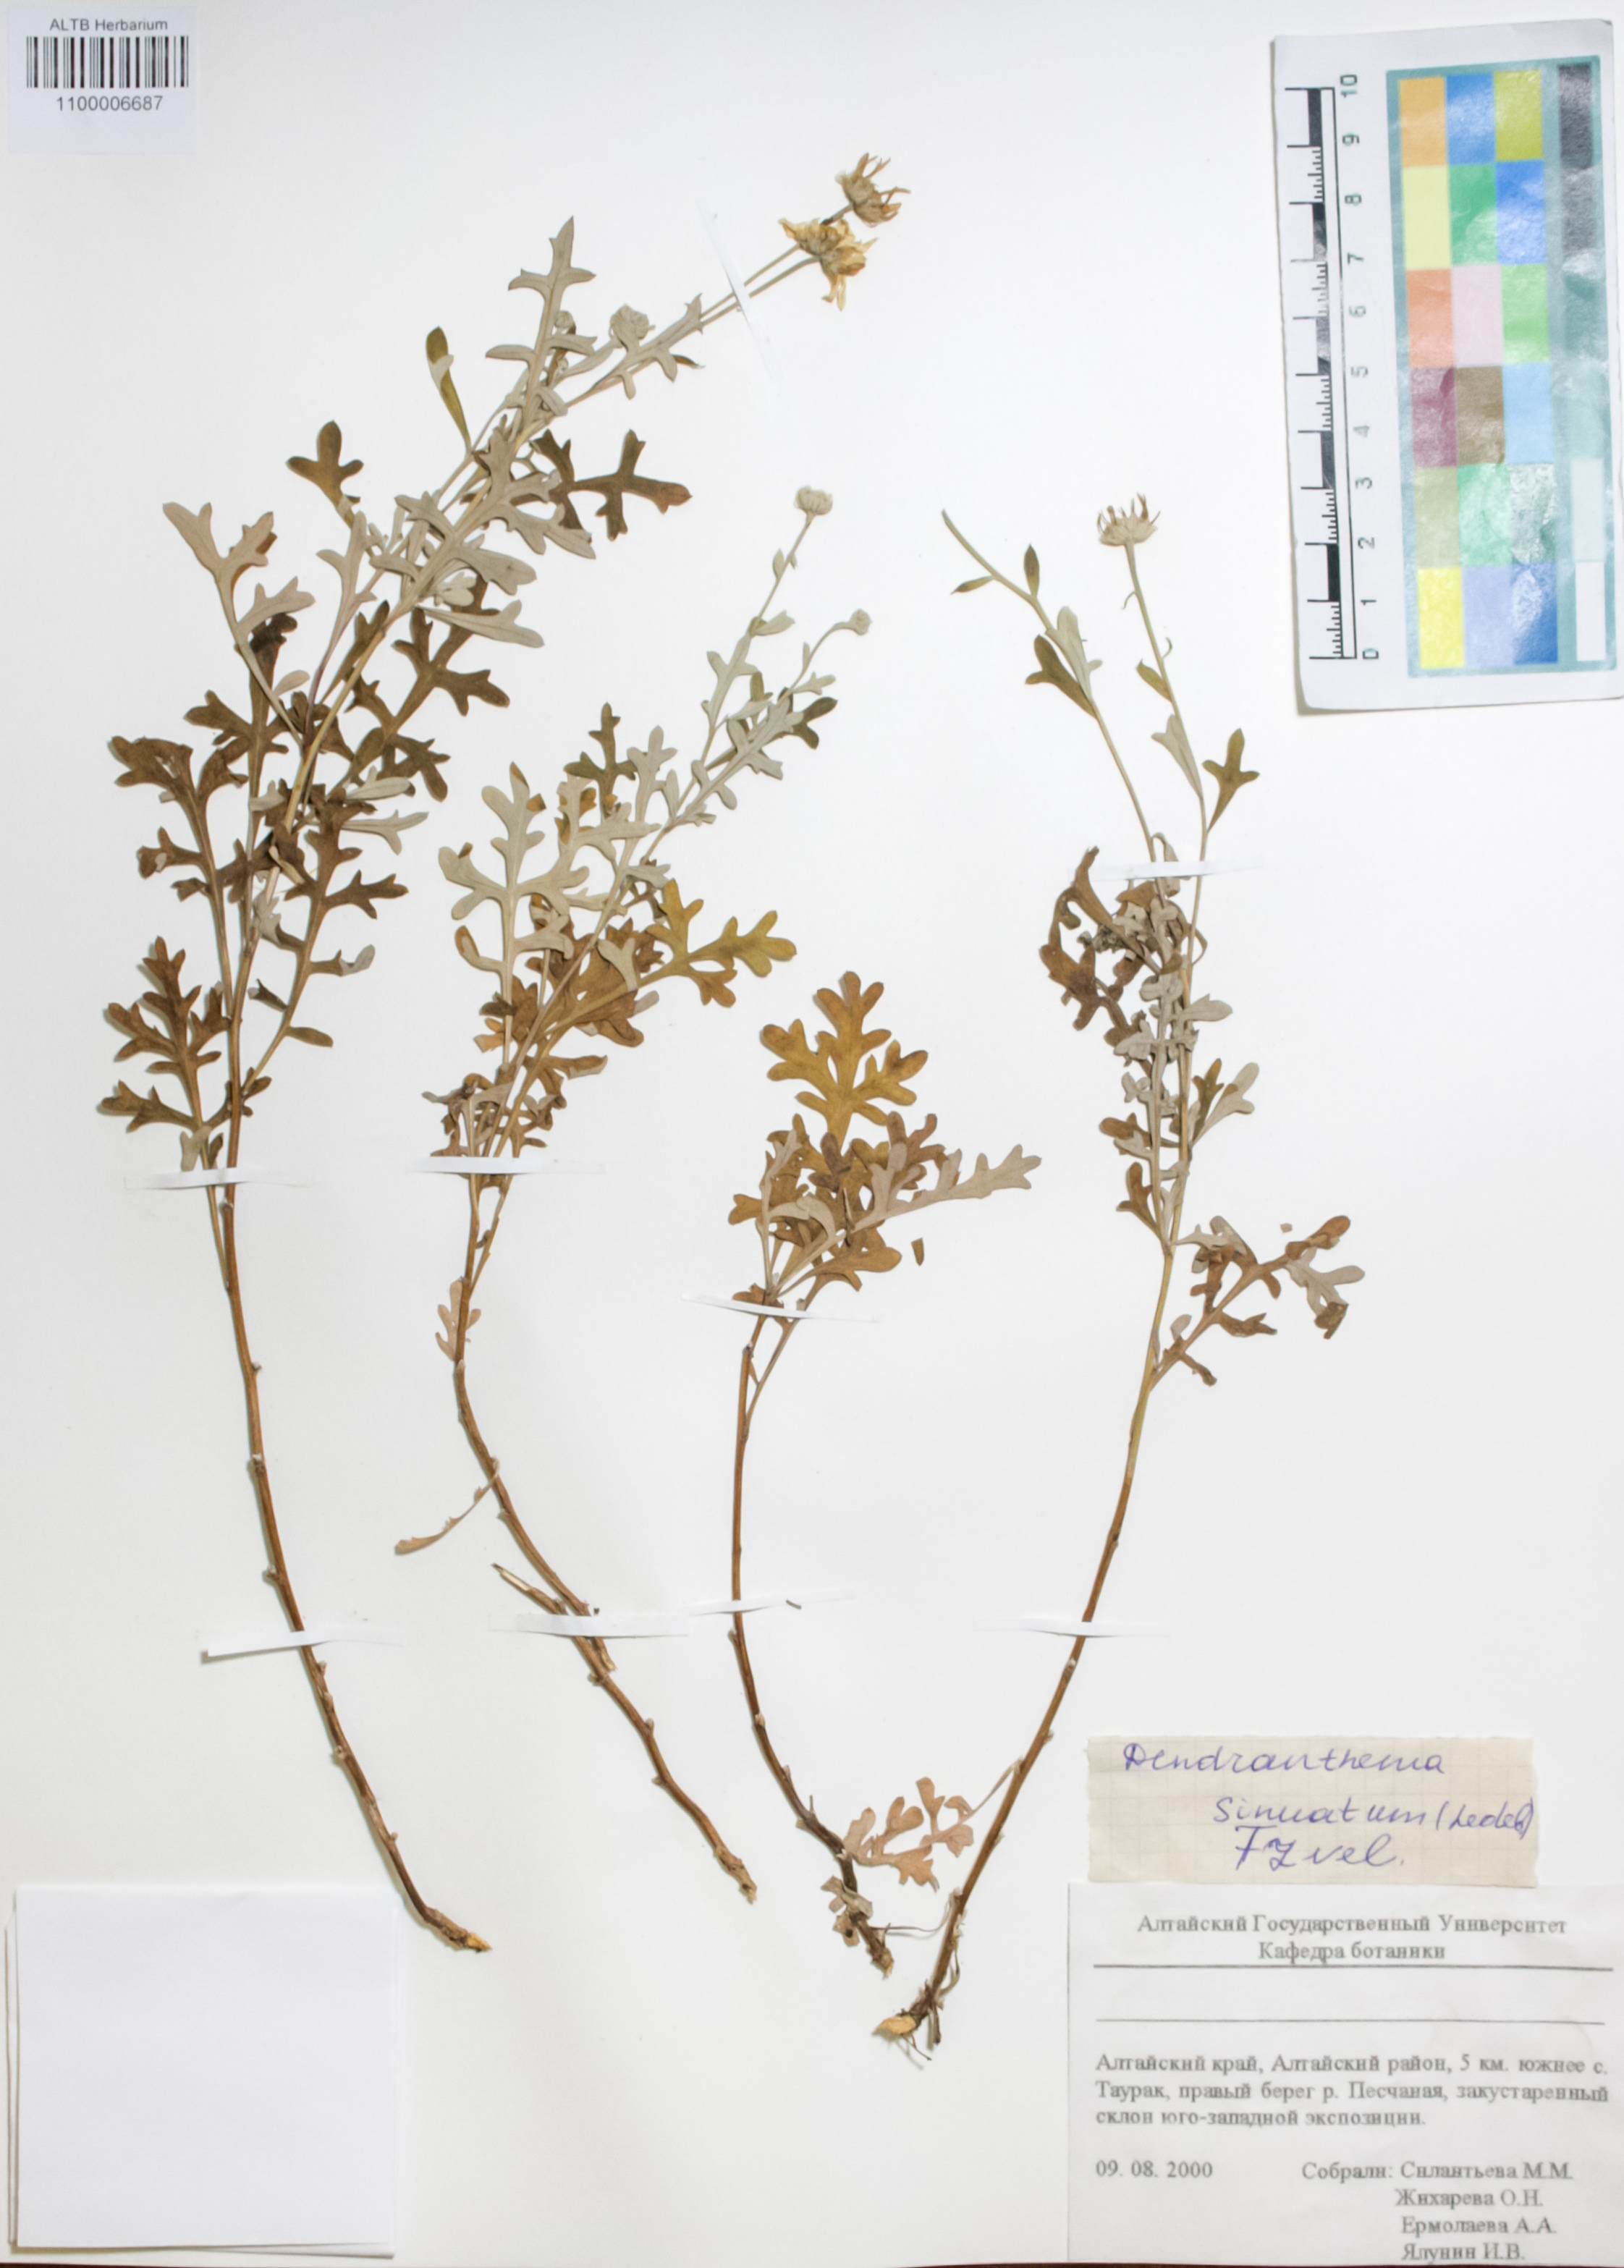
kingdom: Plantae
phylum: Tracheophyta
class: Magnoliopsida
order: Asterales
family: Asteraceae
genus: Chrysanthemum
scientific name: Chrysanthemum sinuatum
